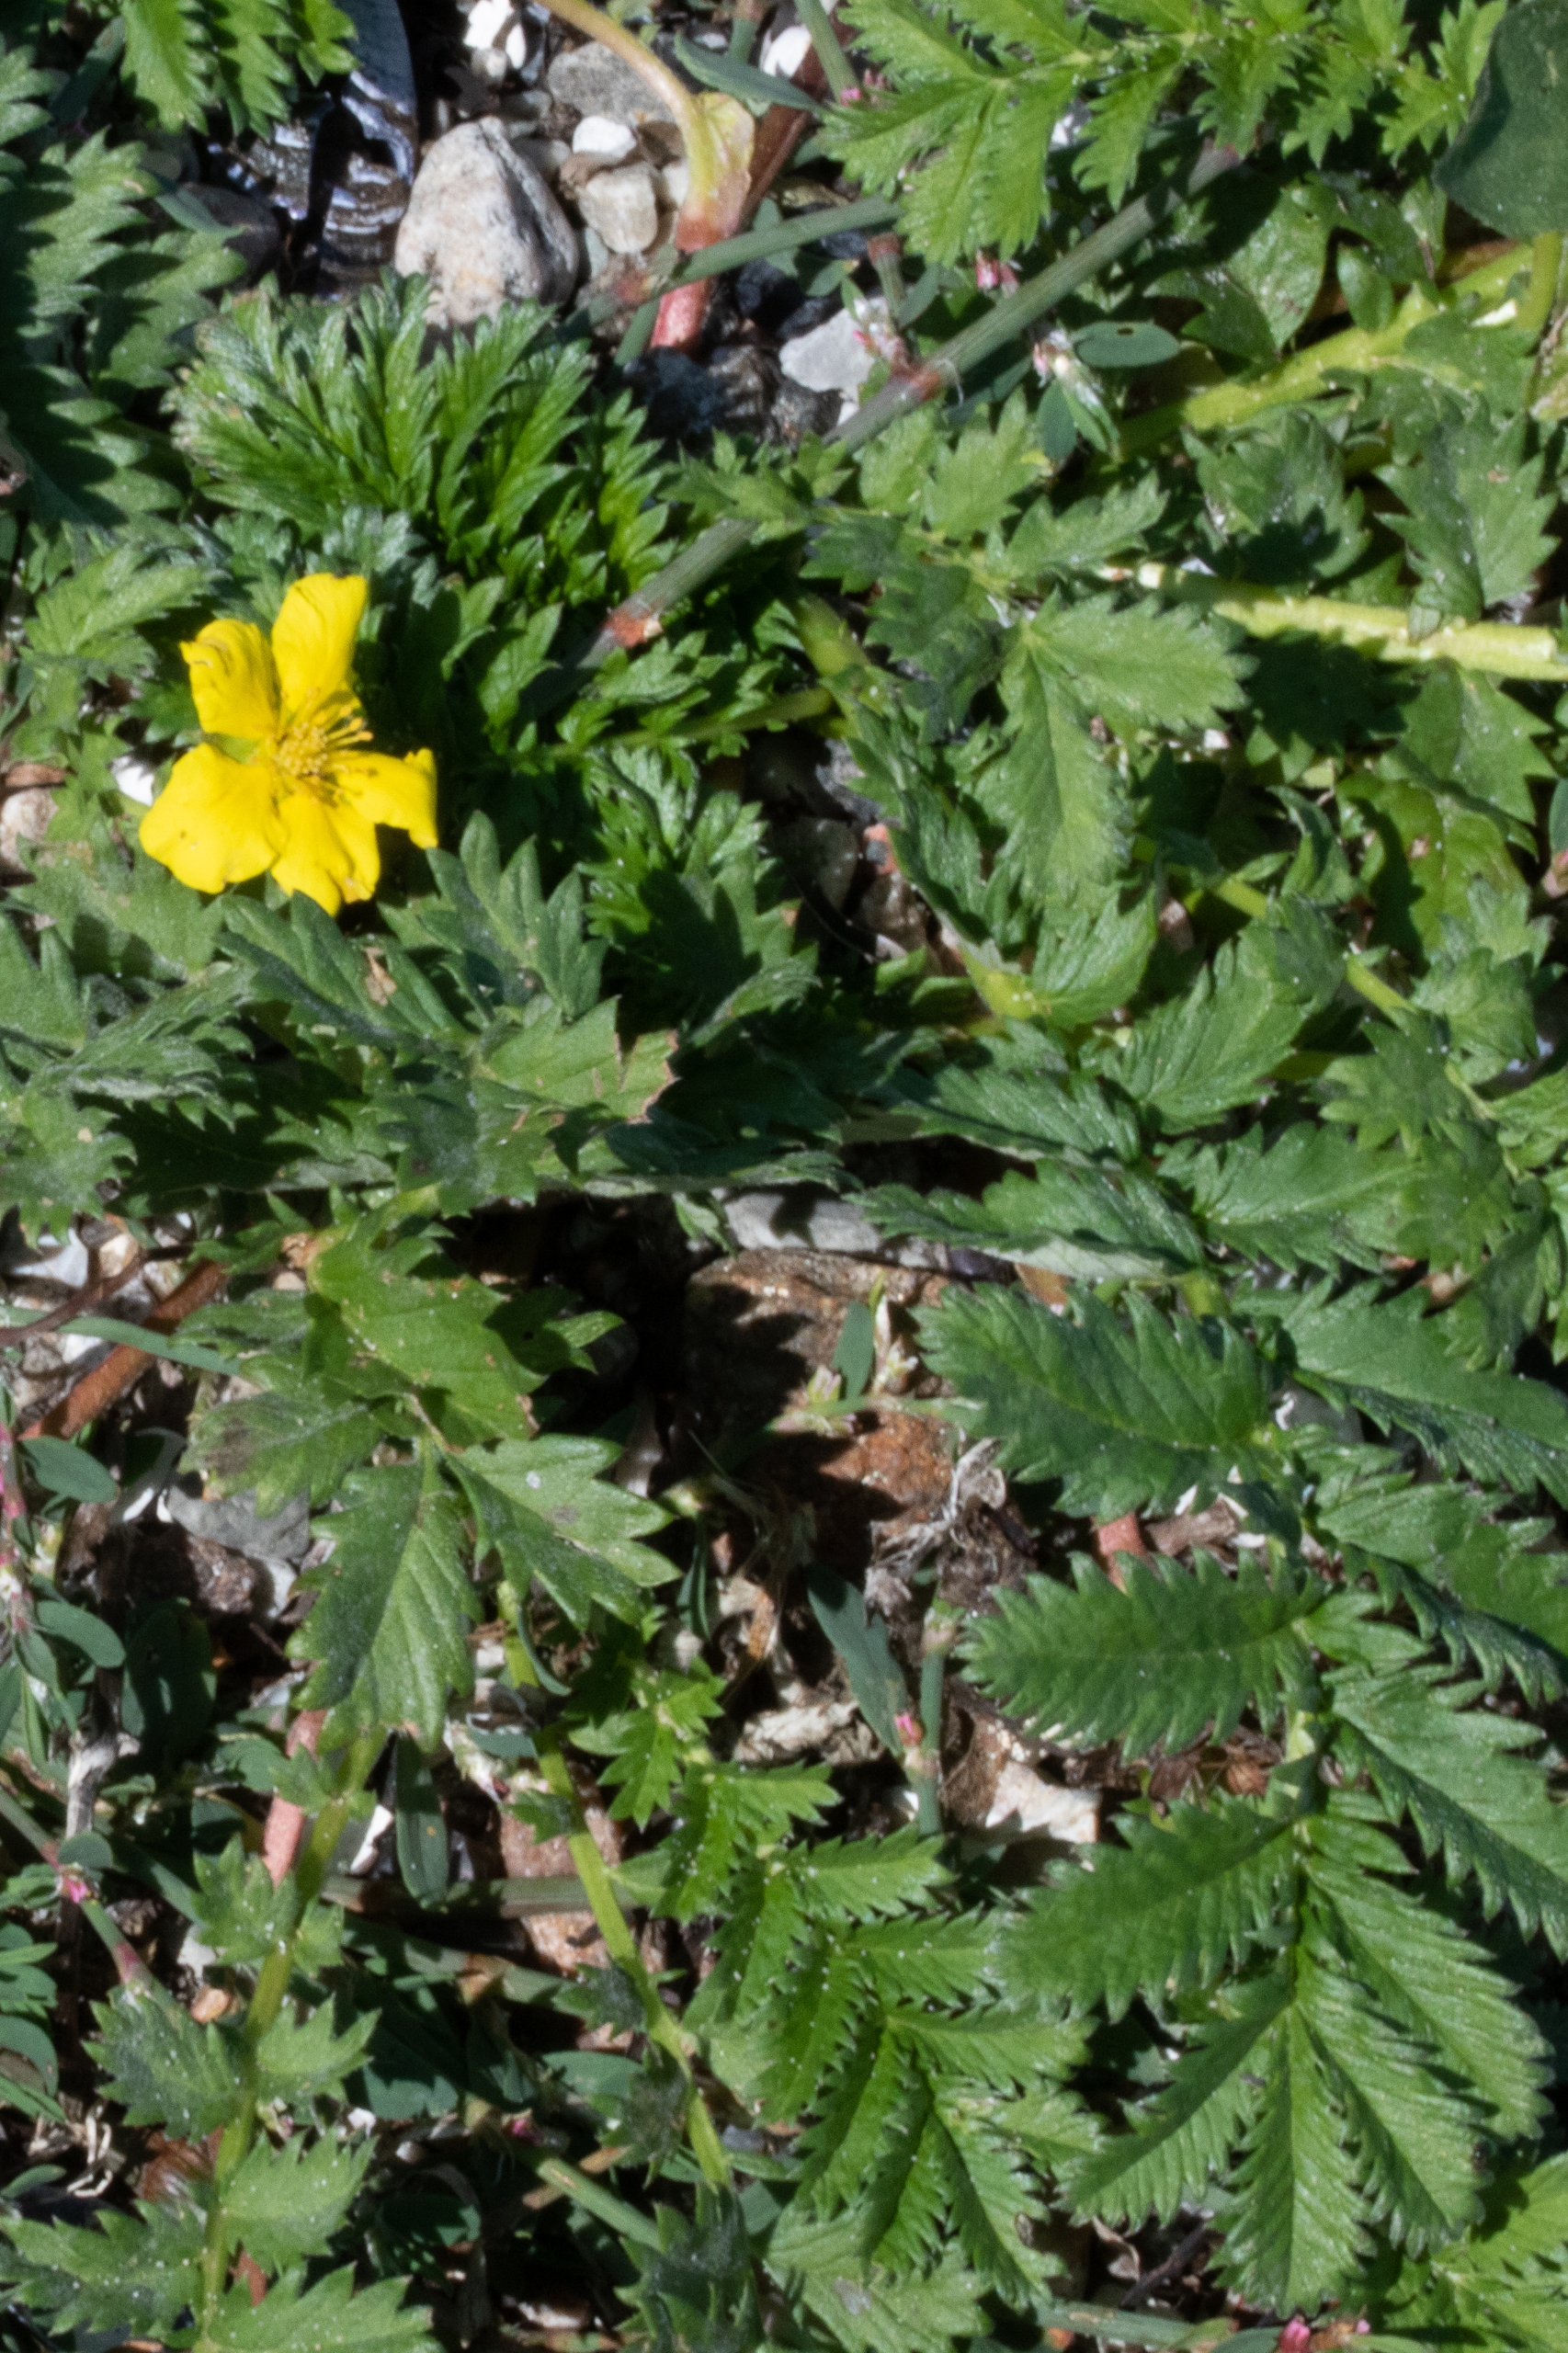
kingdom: Plantae
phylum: Tracheophyta
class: Magnoliopsida
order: Rosales
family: Rosaceae
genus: Argentina
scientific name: Argentina anserina
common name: Gåsepotentil
